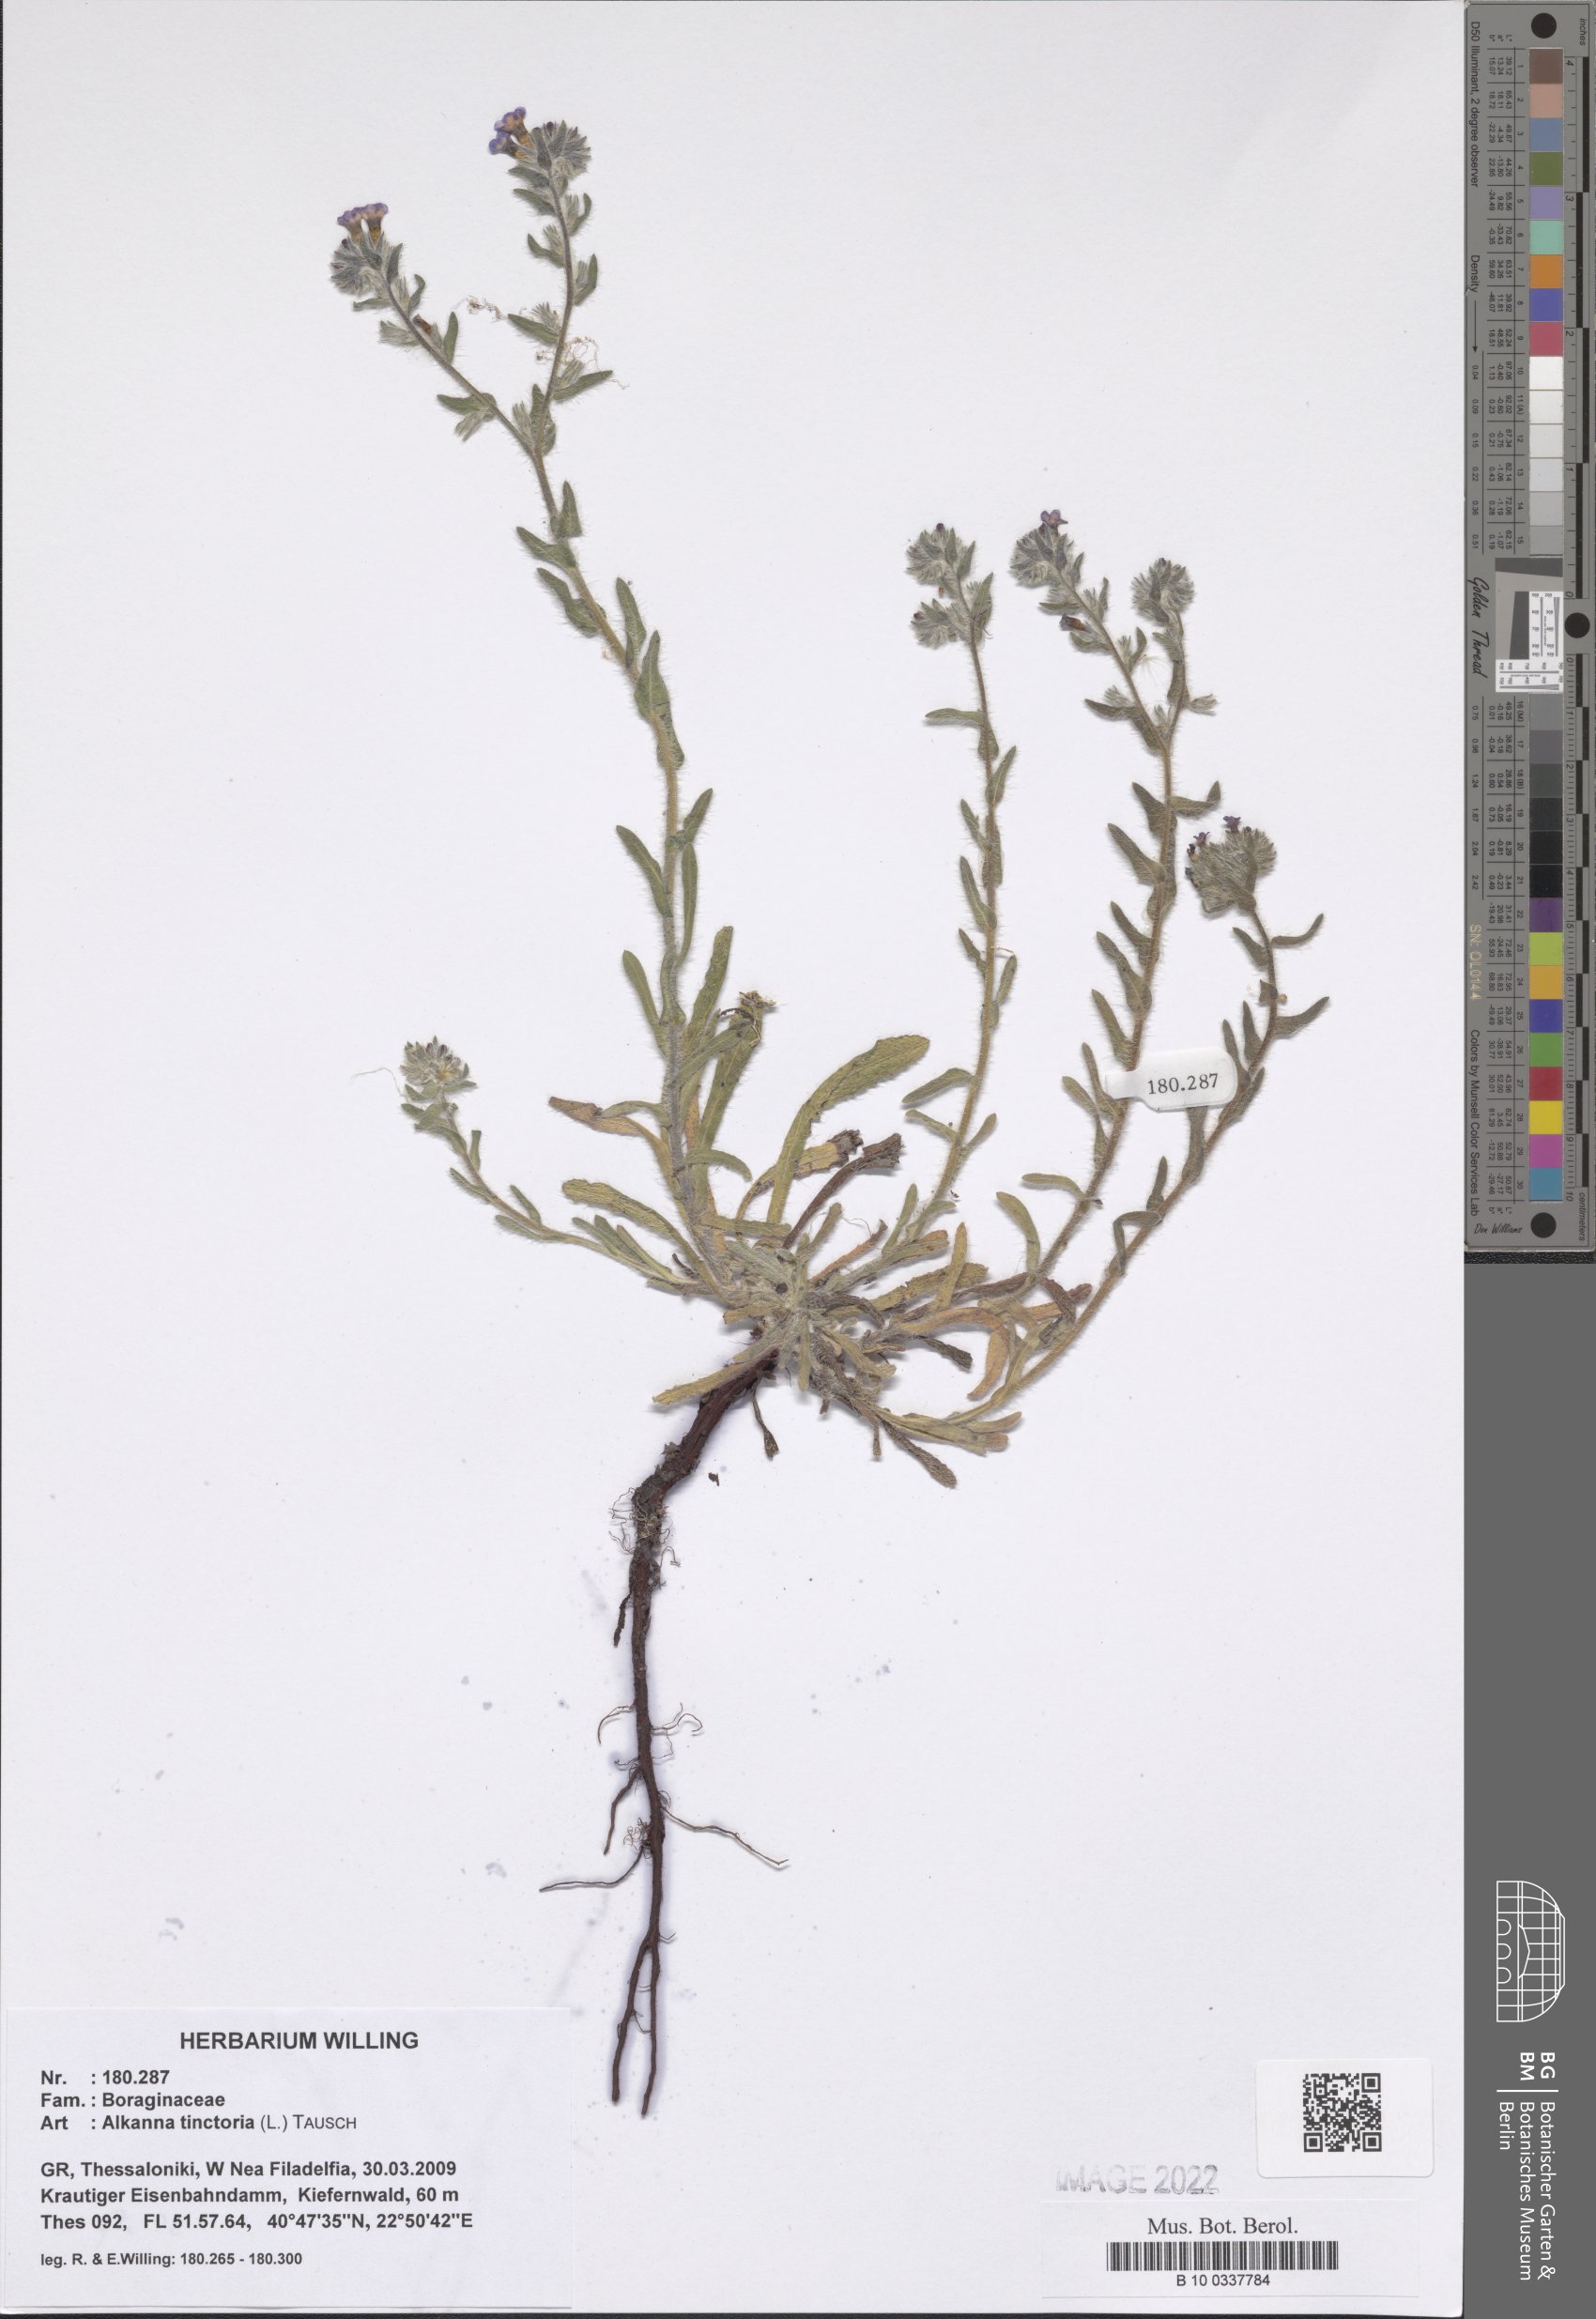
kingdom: Plantae
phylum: Tracheophyta
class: Magnoliopsida
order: Boraginales
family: Boraginaceae
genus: Alkanna
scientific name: Alkanna tinctoria
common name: Dyer's-alkanet
